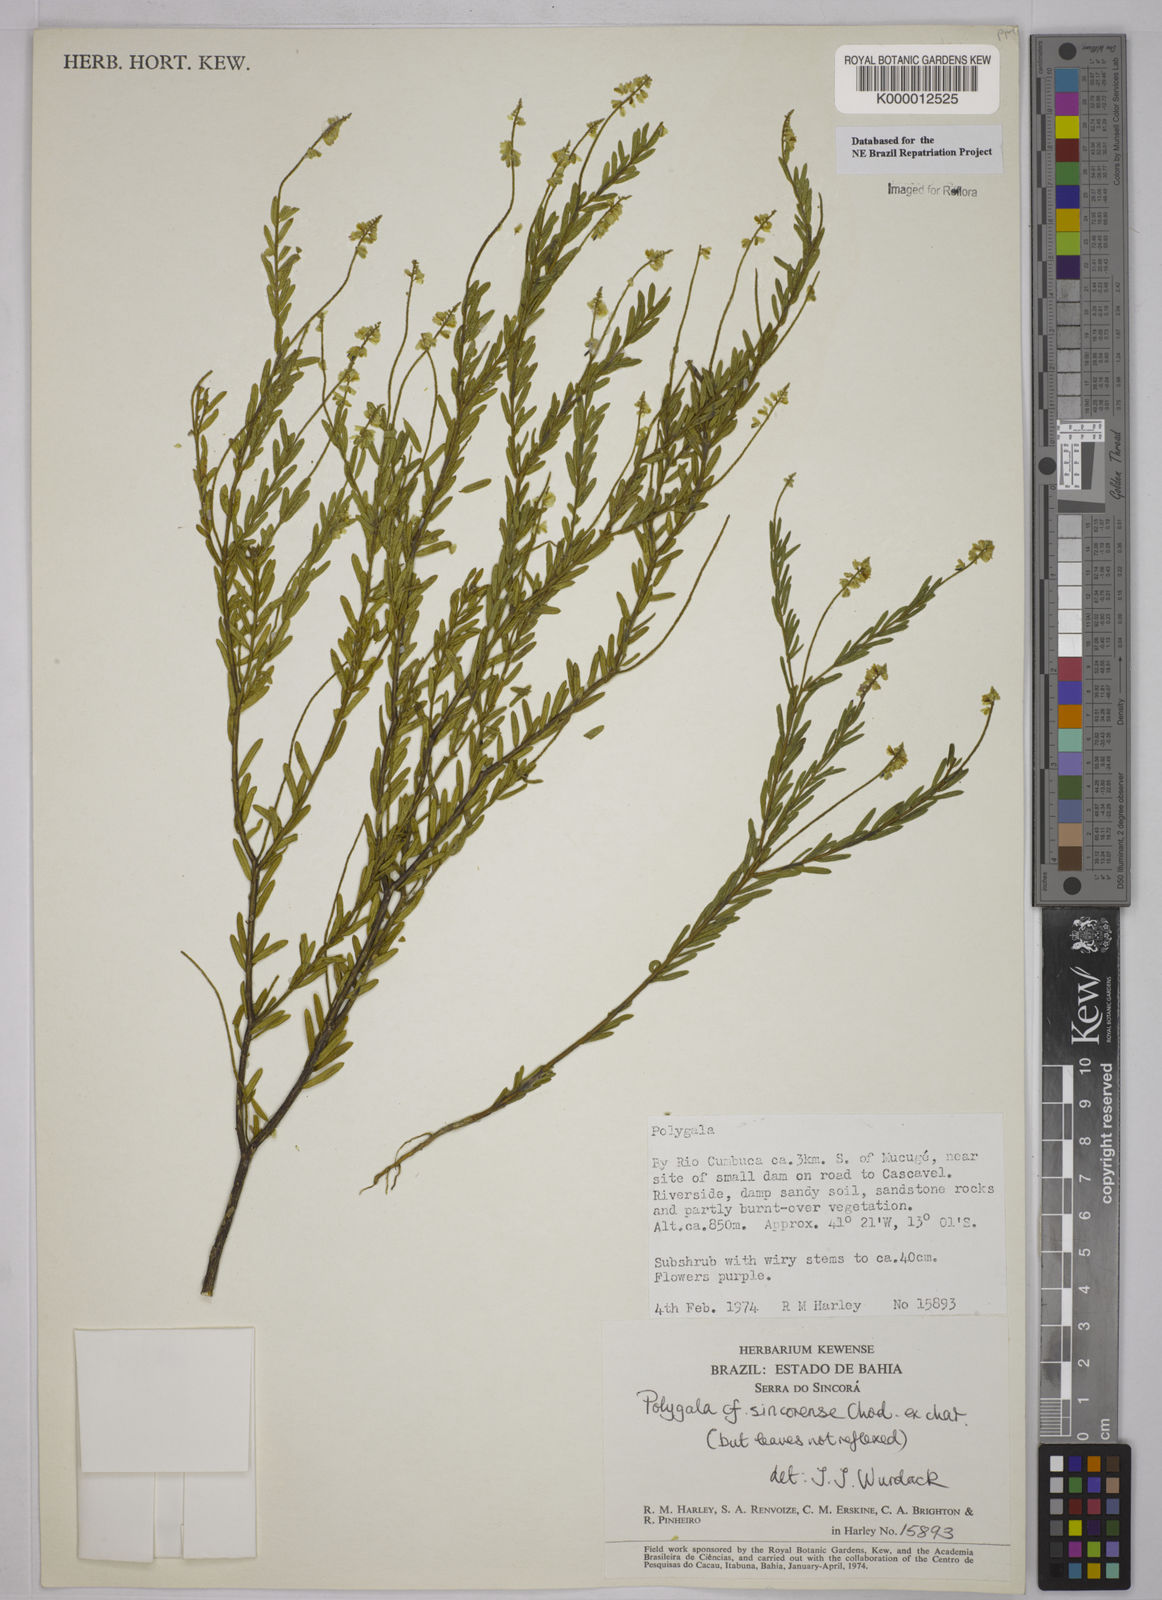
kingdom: Plantae
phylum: Tracheophyta
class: Magnoliopsida
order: Fabales
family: Polygalaceae
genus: Polygala
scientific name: Polygala tuberculata
